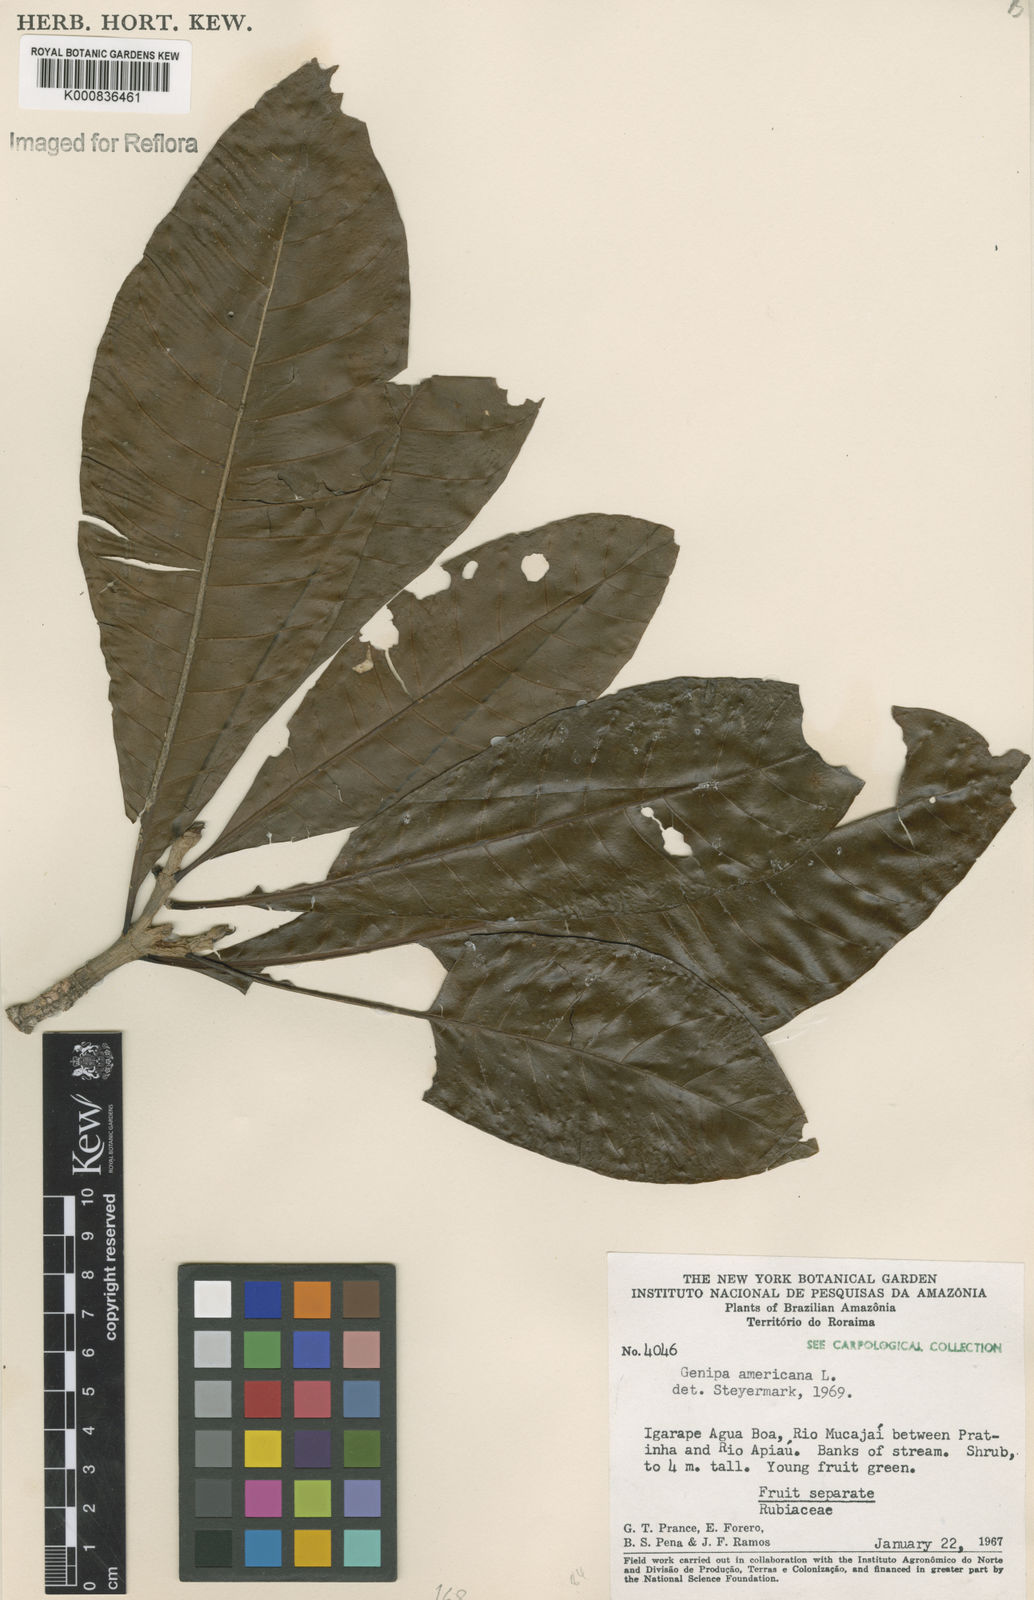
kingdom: Plantae
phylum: Tracheophyta
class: Magnoliopsida
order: Gentianales
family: Rubiaceae
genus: Genipa
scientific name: Genipa americana
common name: Genipap
